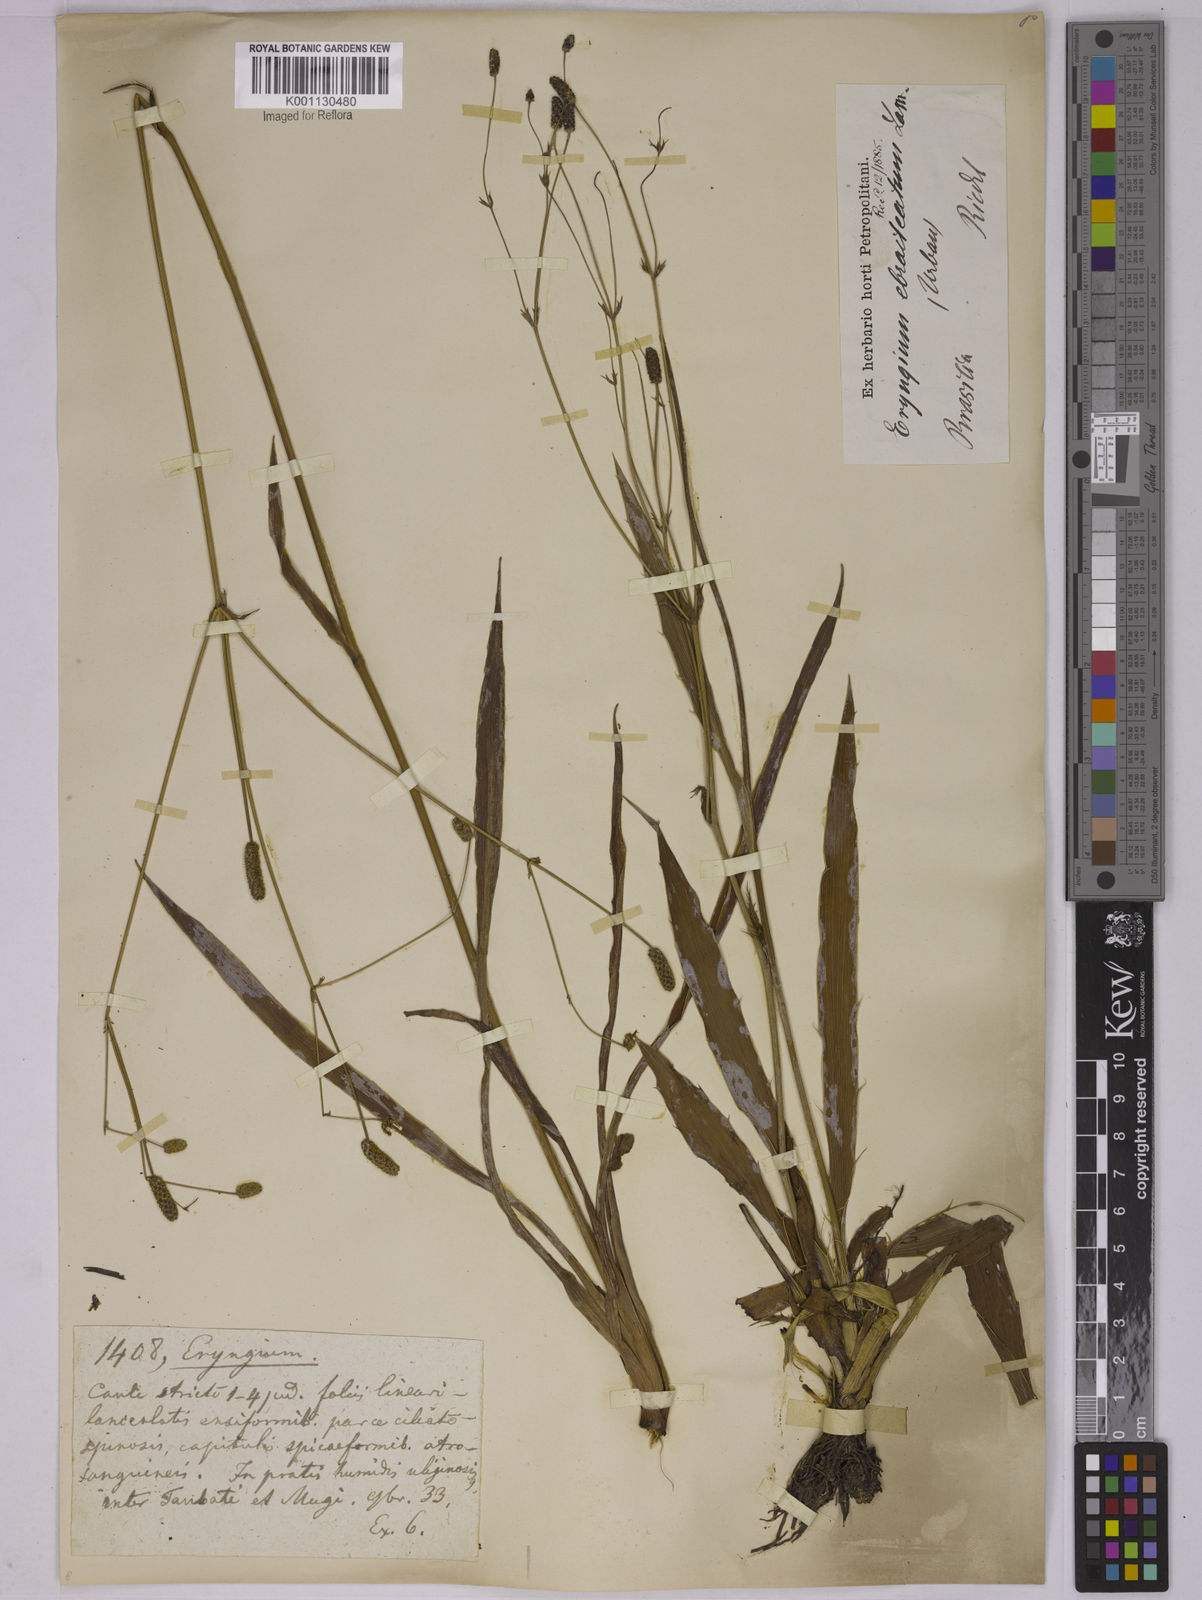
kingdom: Plantae
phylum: Tracheophyta
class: Magnoliopsida
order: Apiales
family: Apiaceae
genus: Eryngium
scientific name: Eryngium ebracteatum
